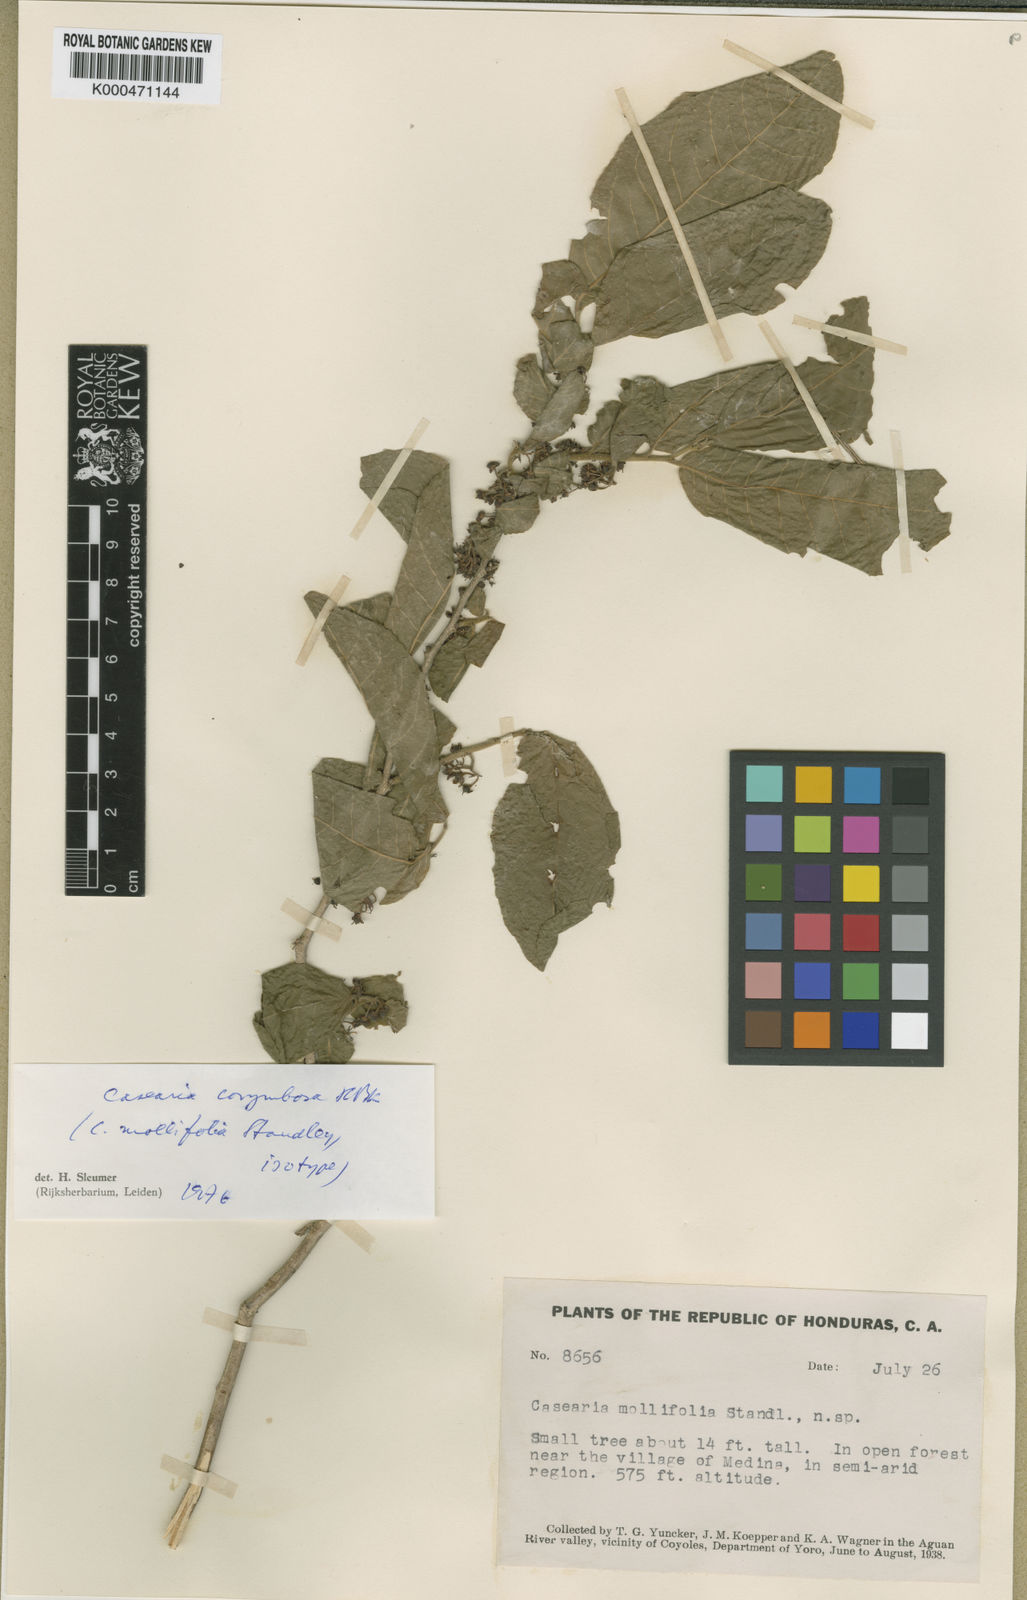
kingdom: Plantae
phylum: Tracheophyta
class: Magnoliopsida
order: Malpighiales
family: Salicaceae
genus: Casearia
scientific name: Casearia corymbosa
